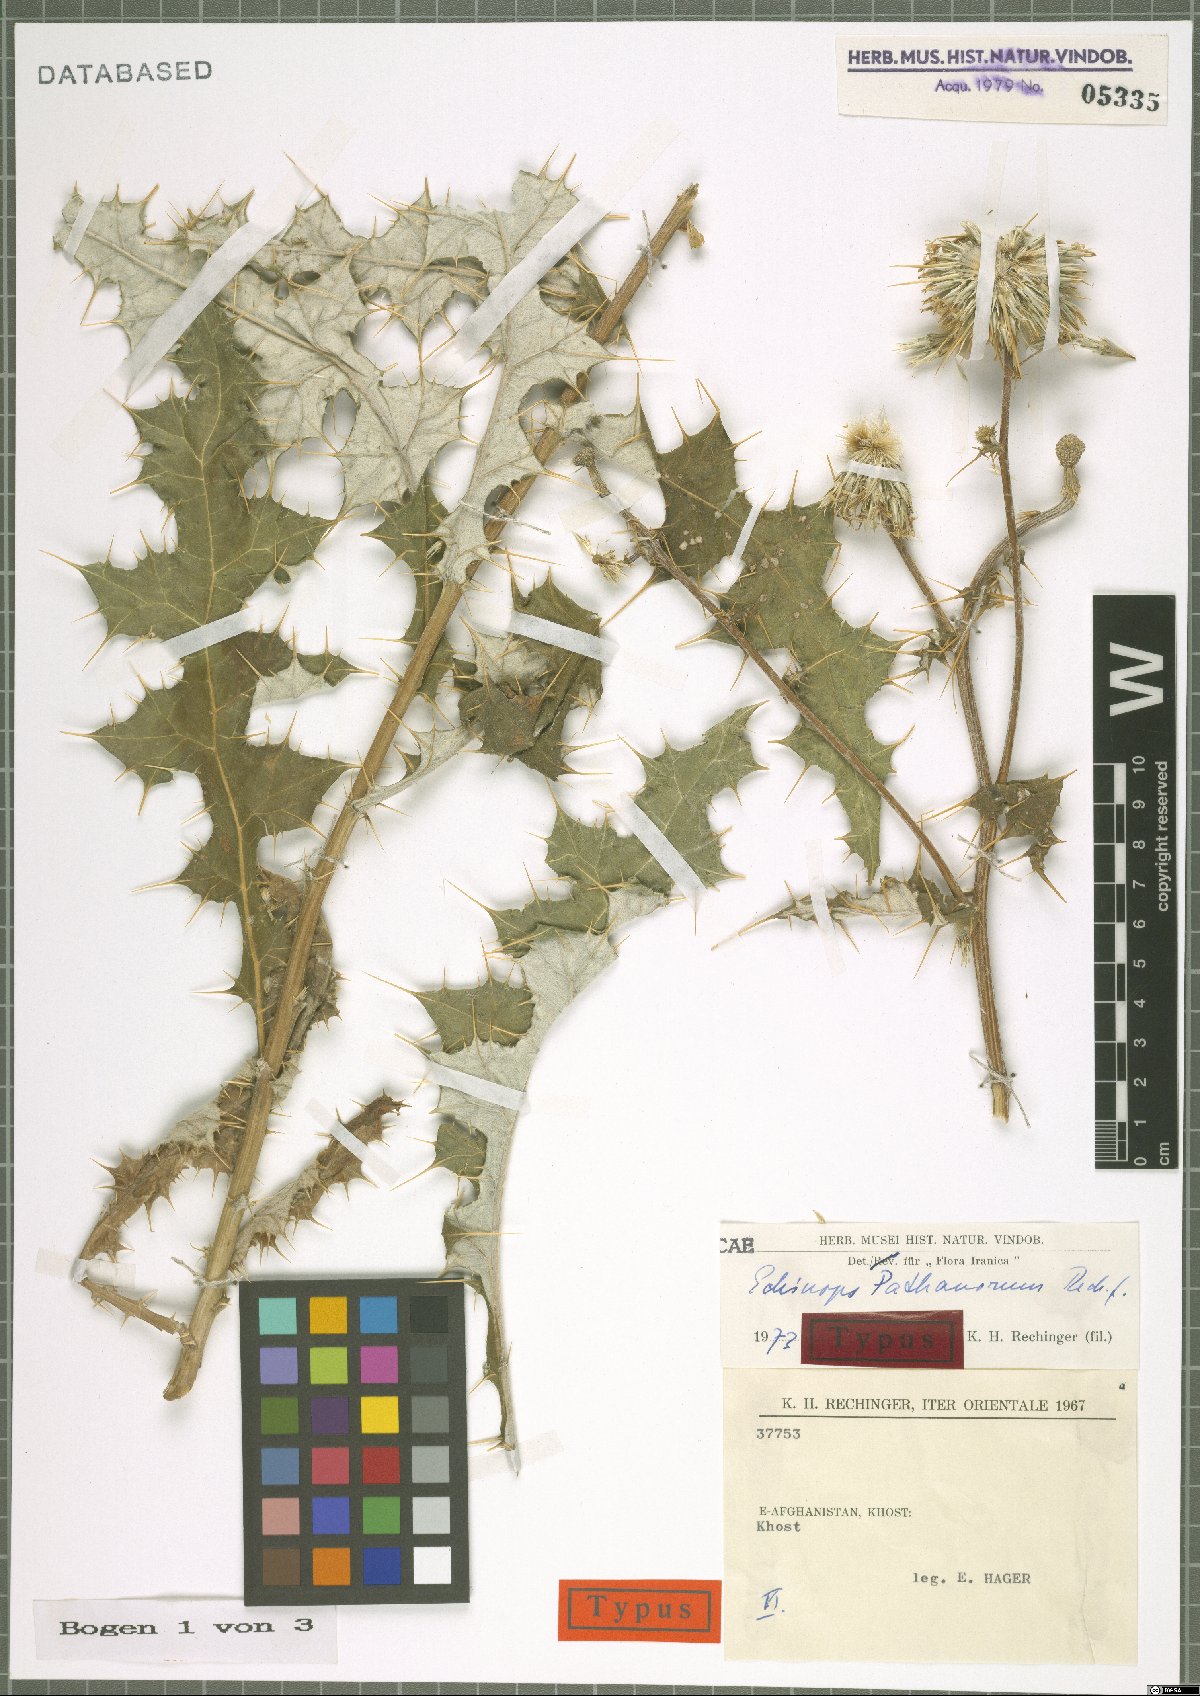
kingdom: Plantae
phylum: Tracheophyta
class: Magnoliopsida
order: Asterales
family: Asteraceae
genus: Echinops
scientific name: Echinops pathanorum
